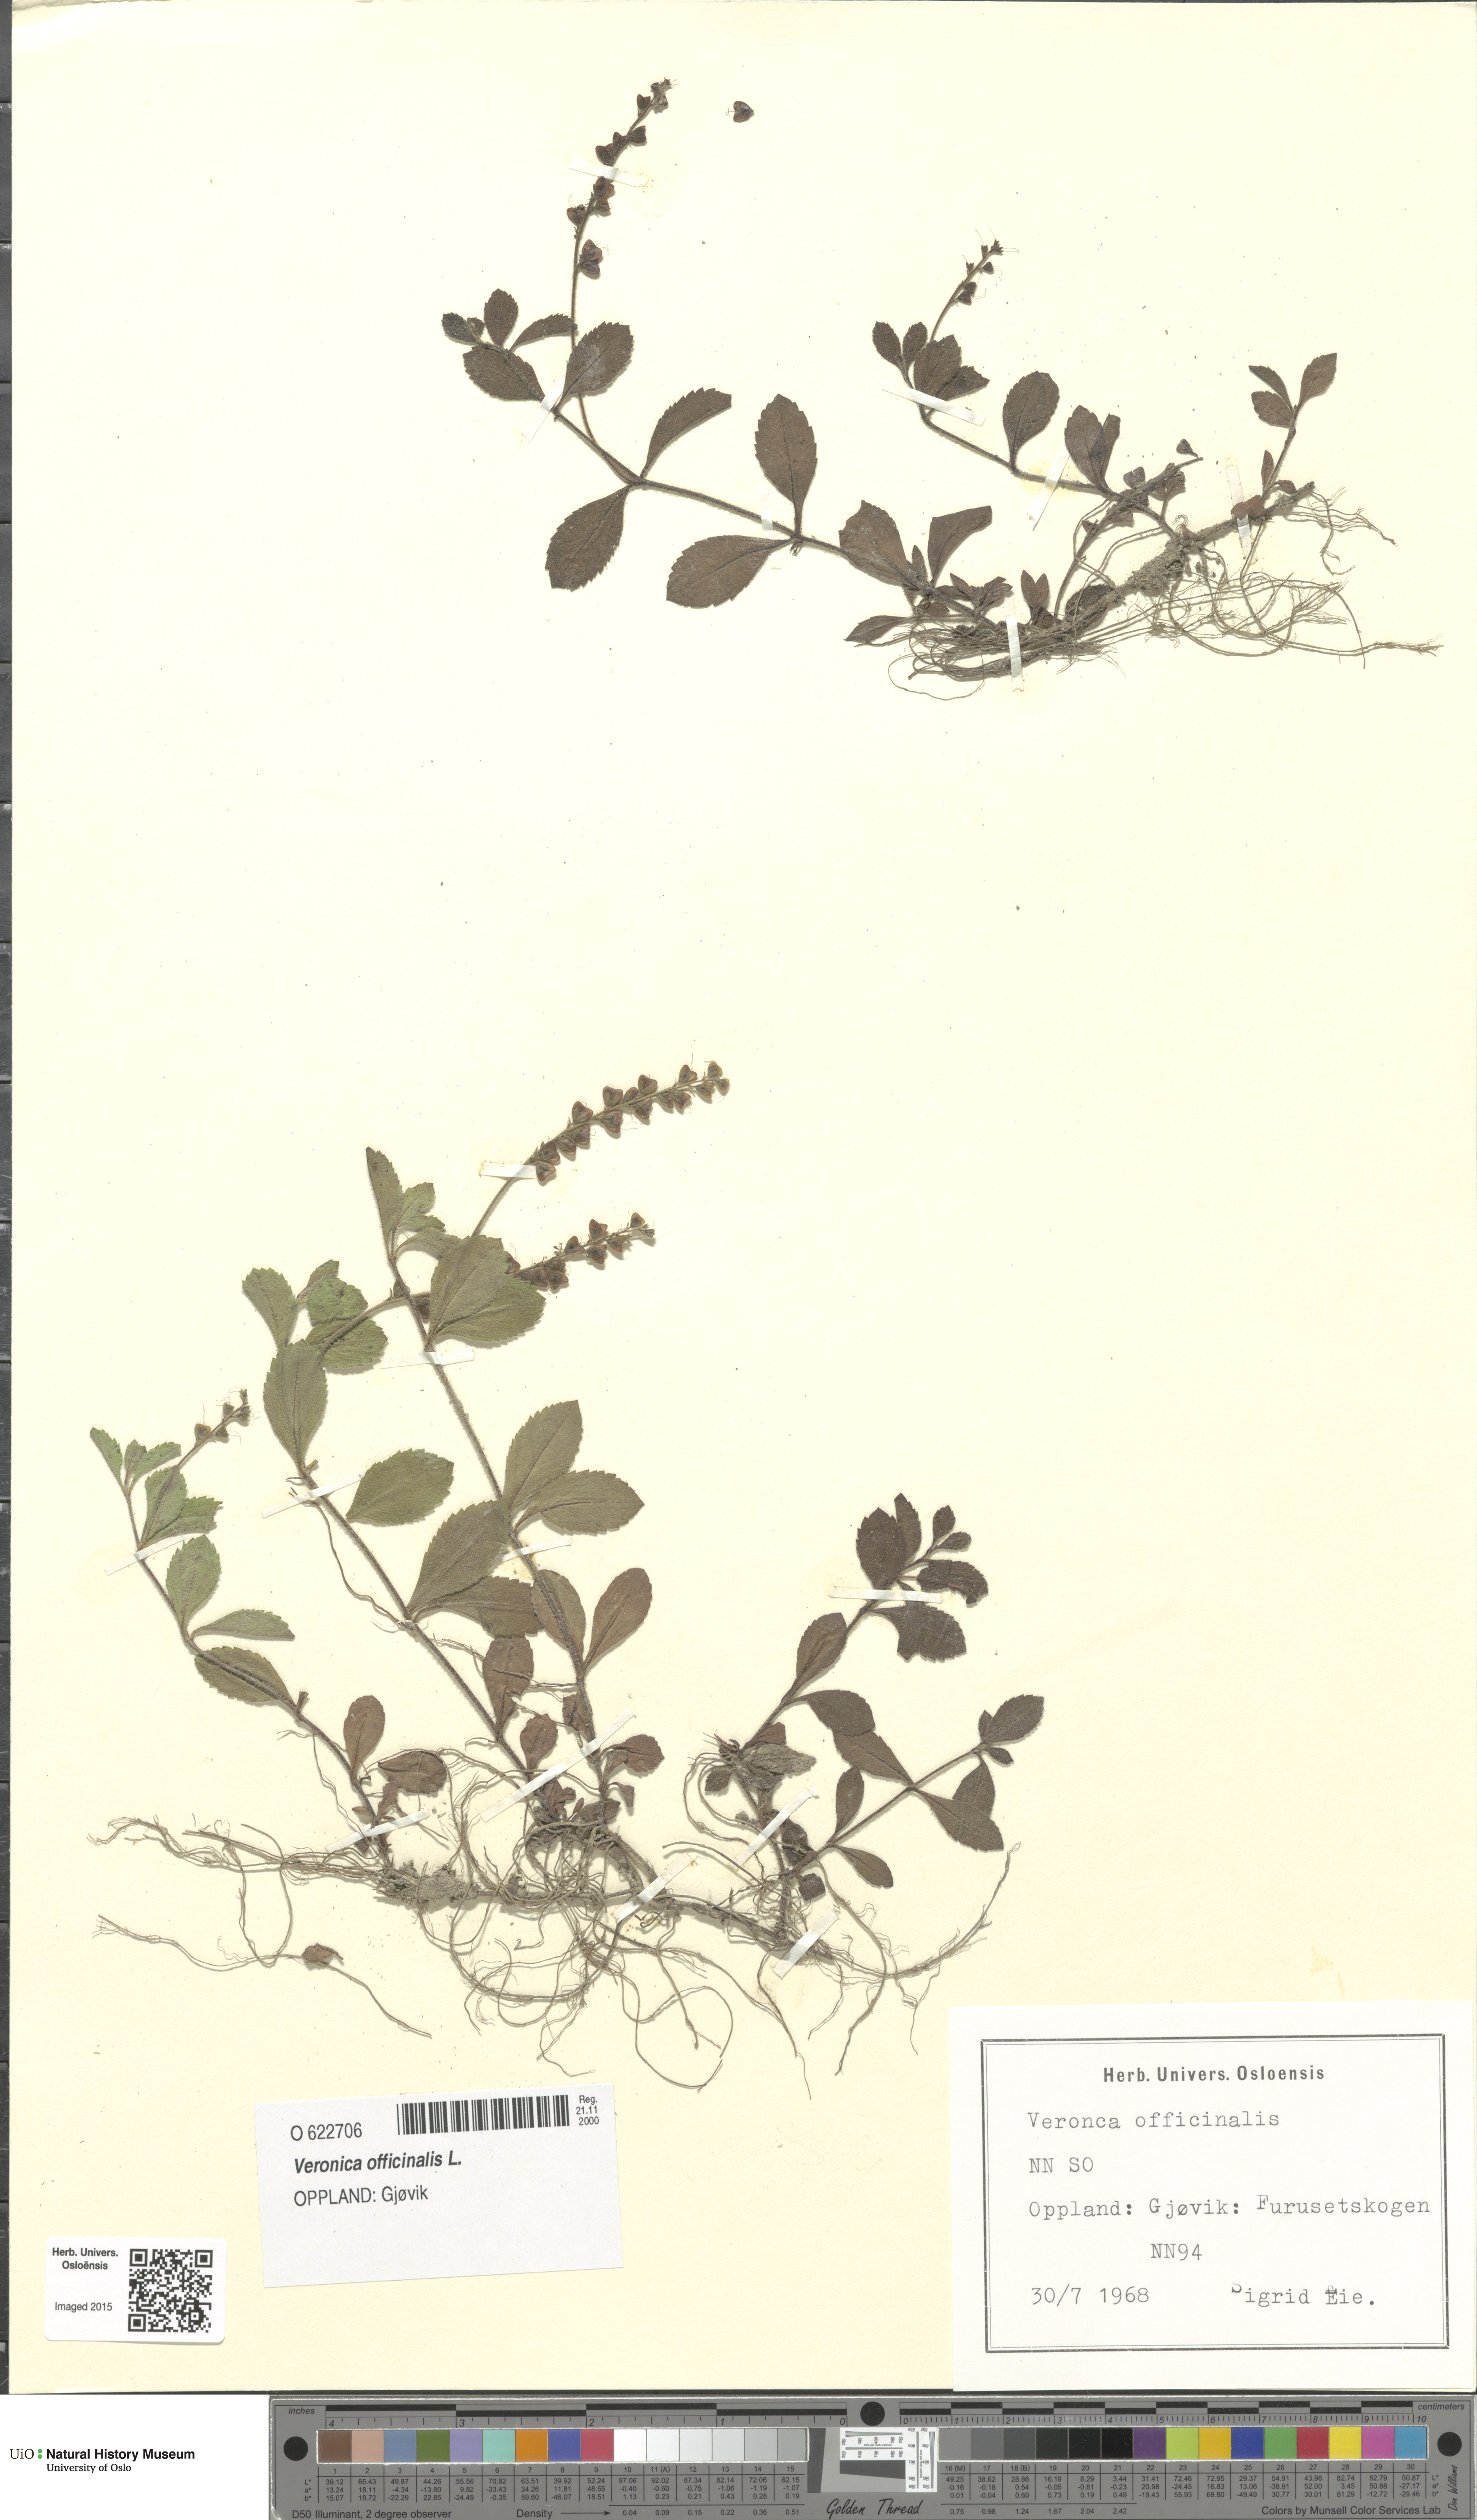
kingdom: Plantae
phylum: Tracheophyta
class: Magnoliopsida
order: Lamiales
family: Plantaginaceae
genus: Veronica
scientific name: Veronica officinalis
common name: Common speedwell
